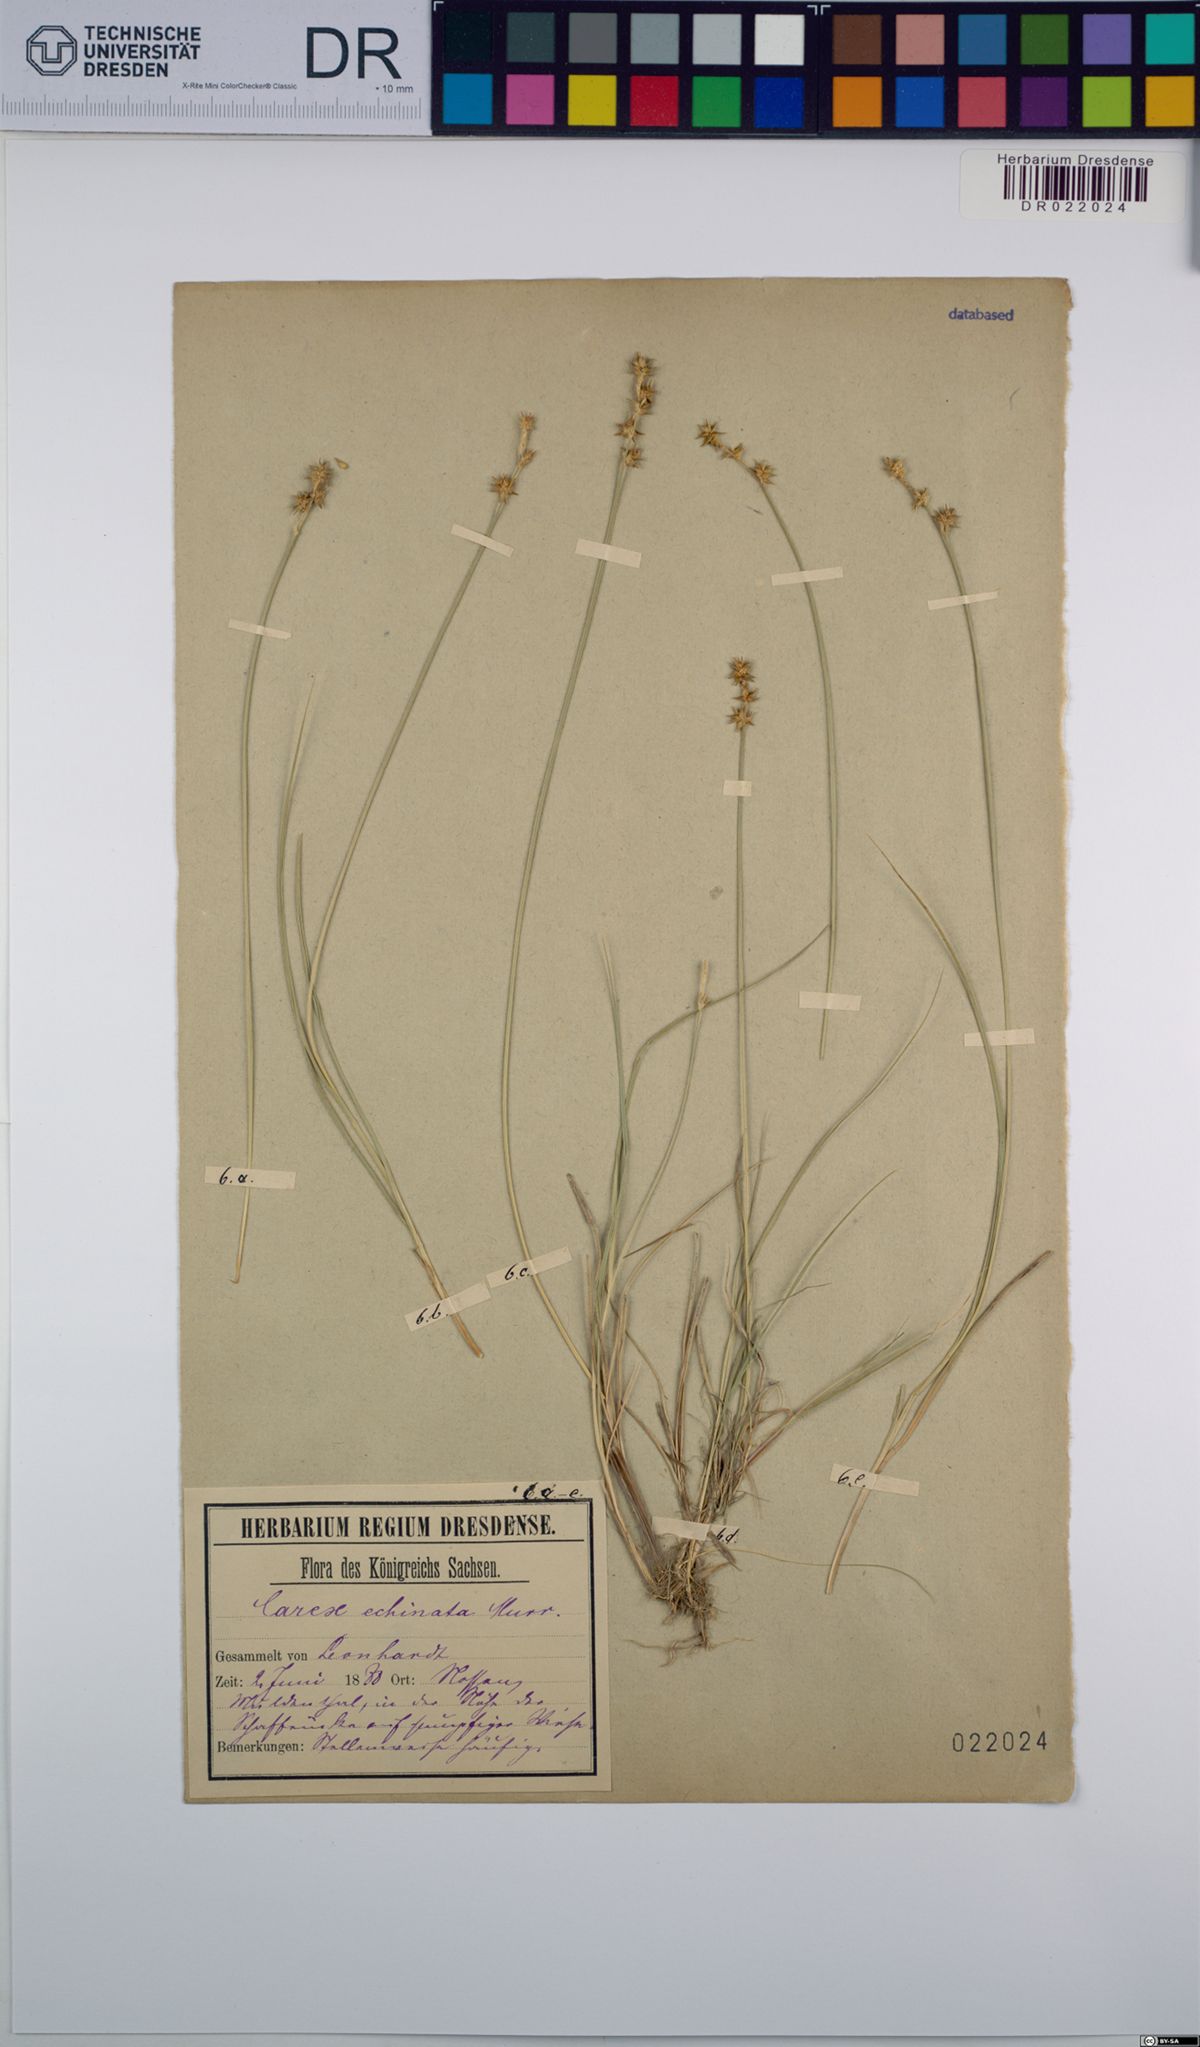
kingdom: Plantae
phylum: Tracheophyta
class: Liliopsida
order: Poales
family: Cyperaceae
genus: Carex
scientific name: Carex echinata
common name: Star sedge
